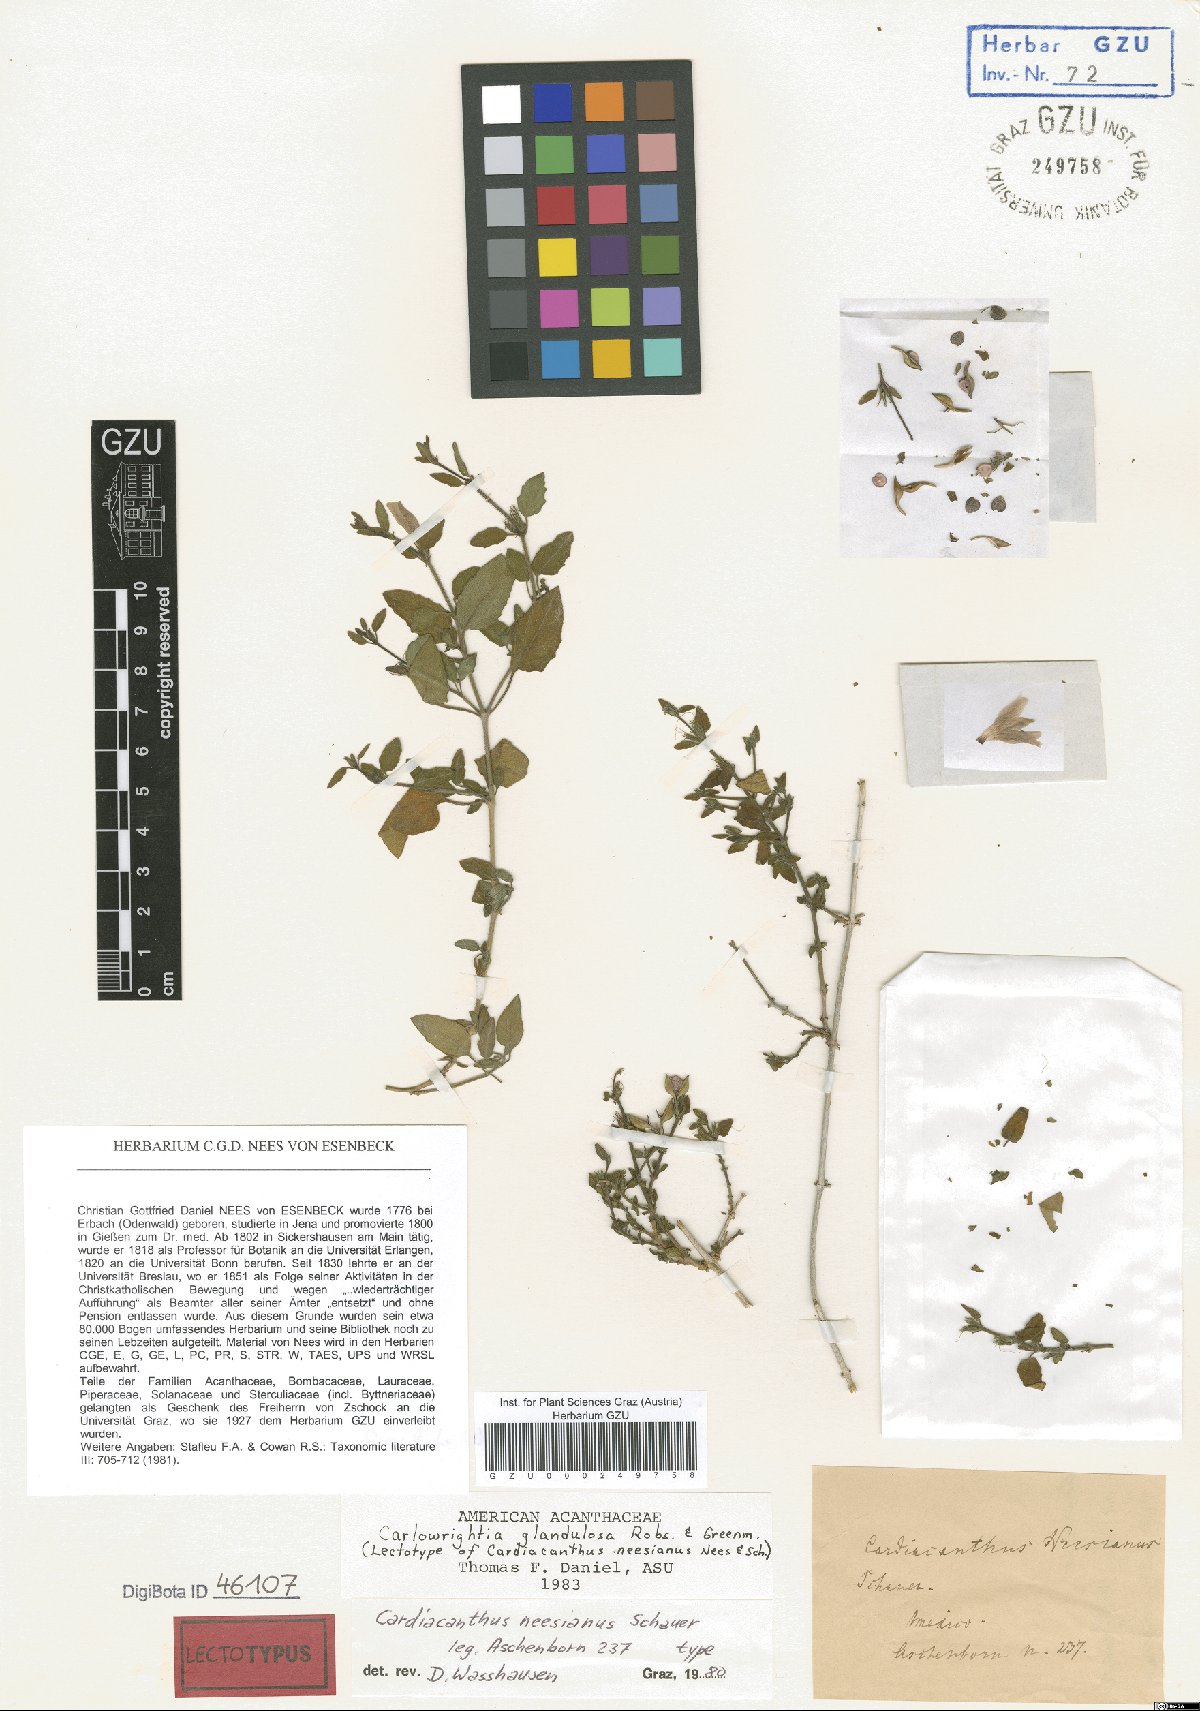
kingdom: Plantae
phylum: Tracheophyta
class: Magnoliopsida
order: Lamiales
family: Acanthaceae
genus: Carlowrightia
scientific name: Carlowrightia neesiana
